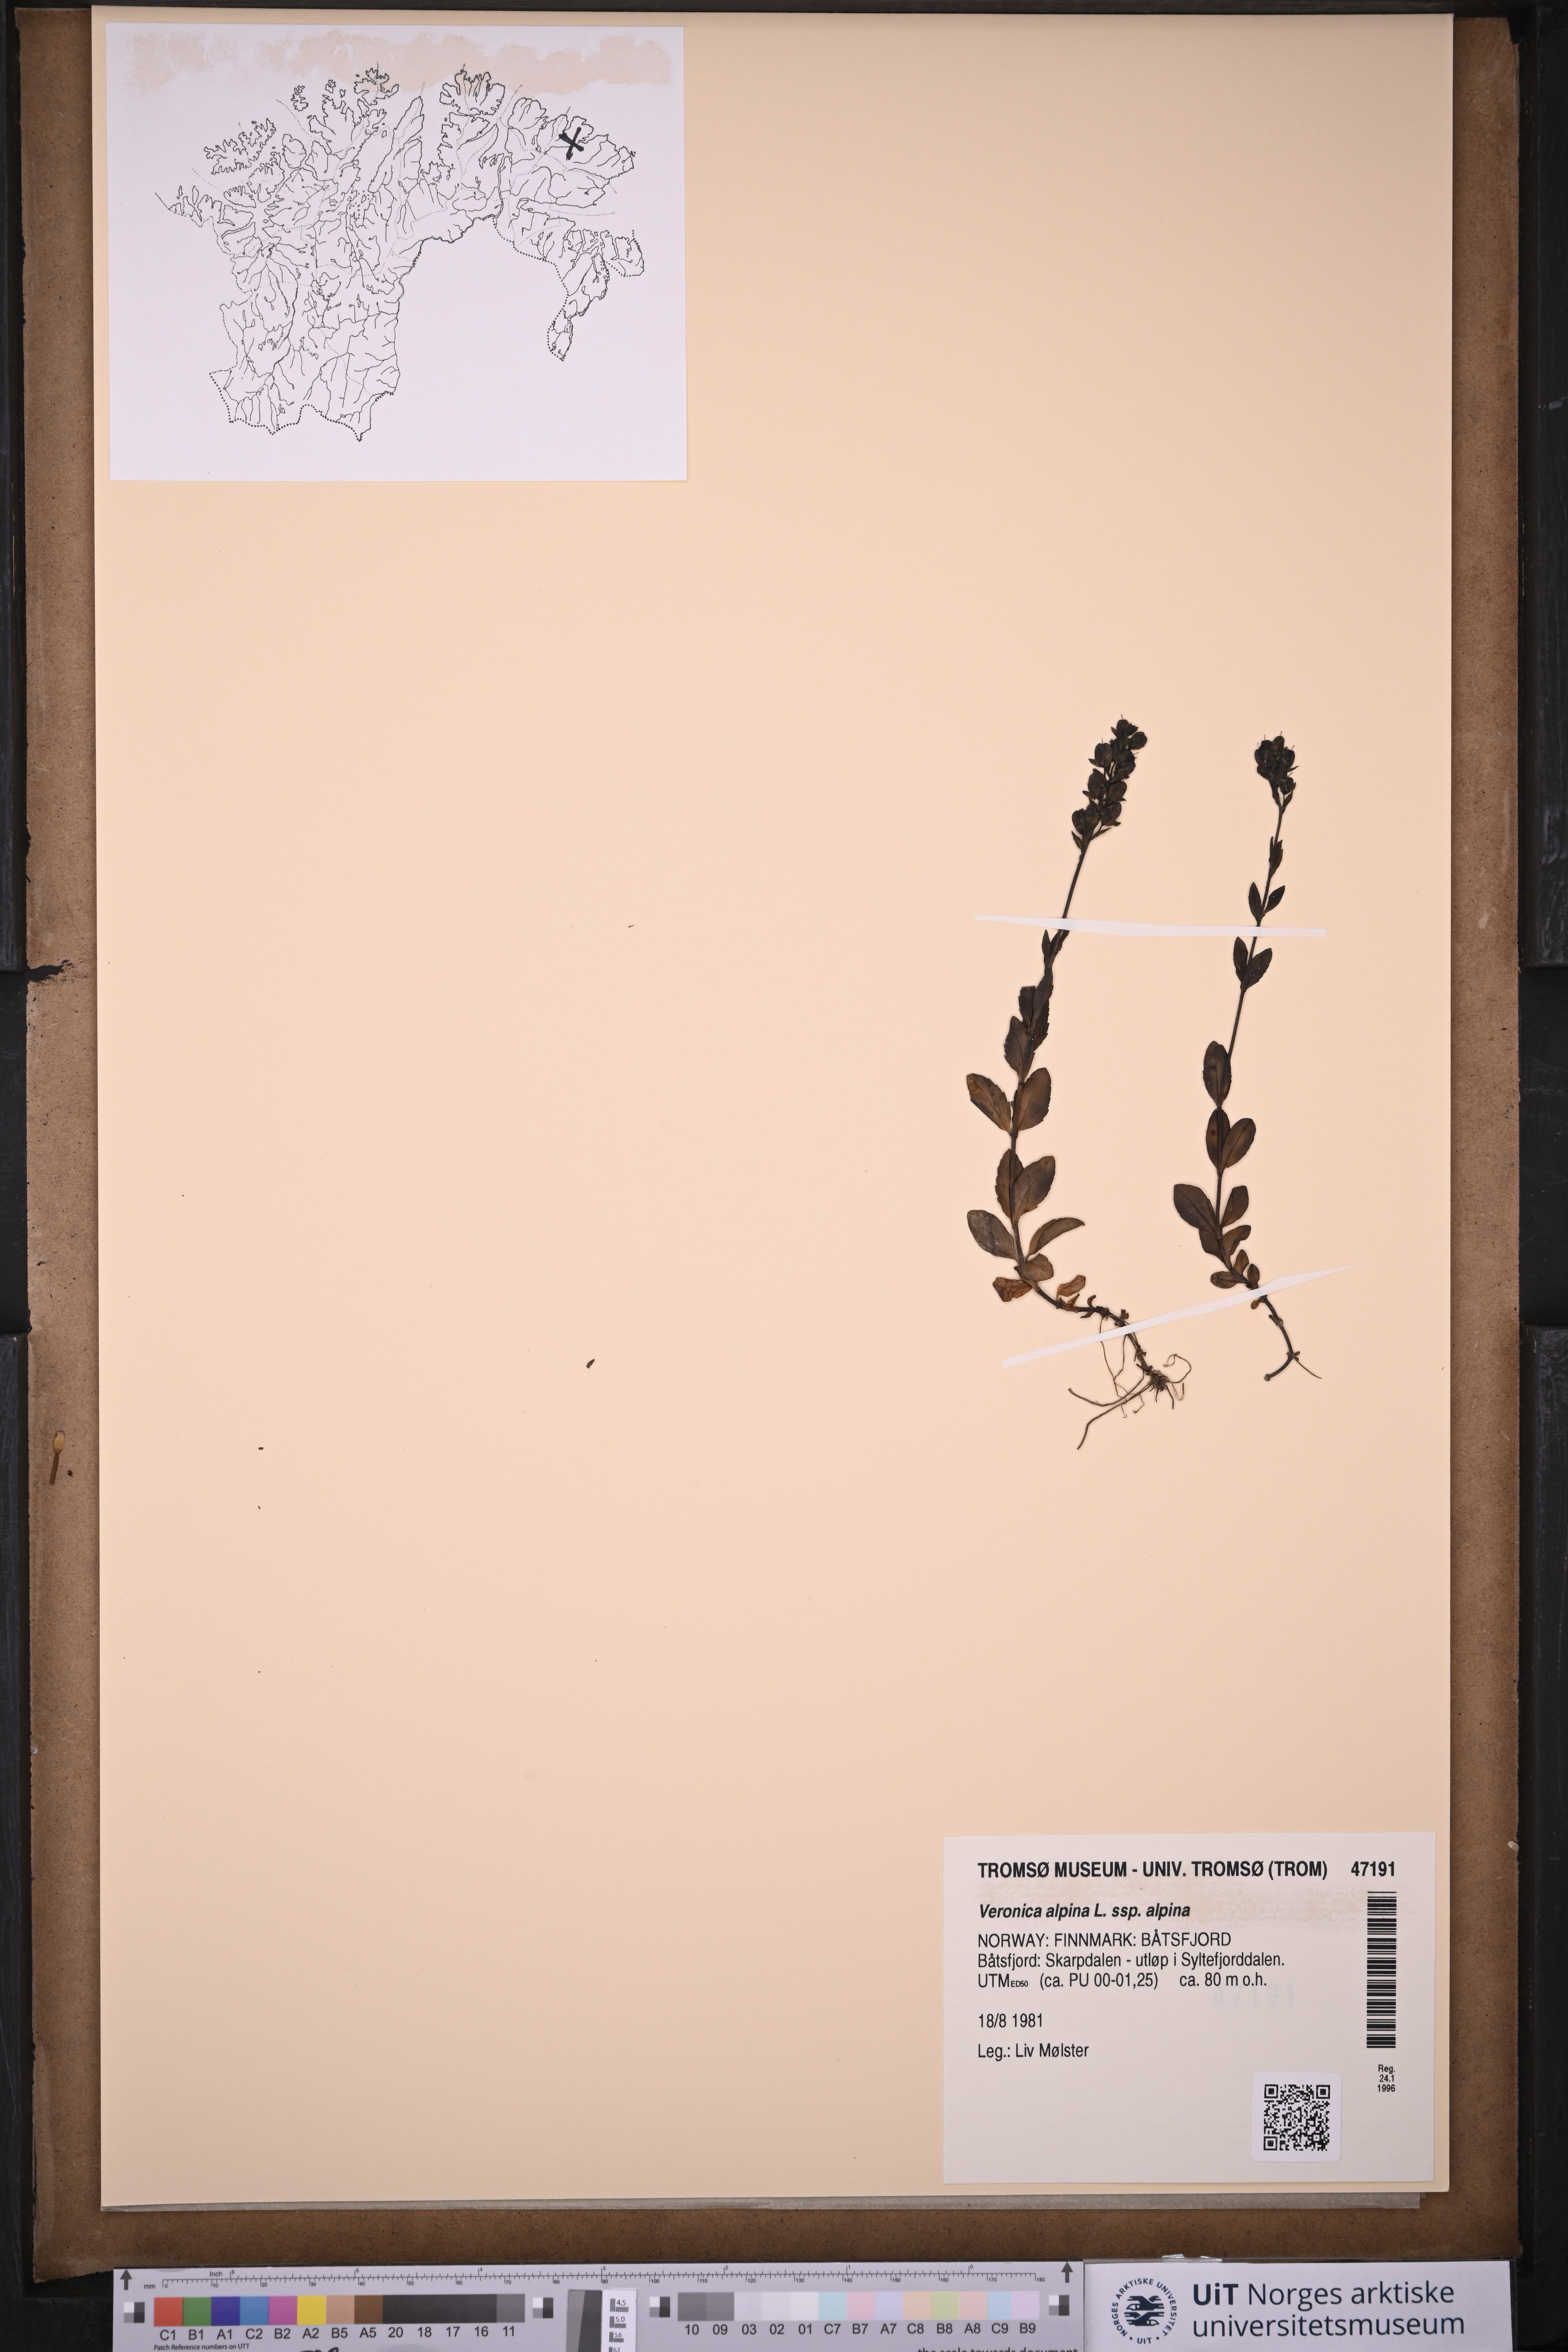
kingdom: Plantae
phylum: Tracheophyta
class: Magnoliopsida
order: Lamiales
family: Plantaginaceae
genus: Veronica
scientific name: Veronica alpina
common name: Alpine speedwell
